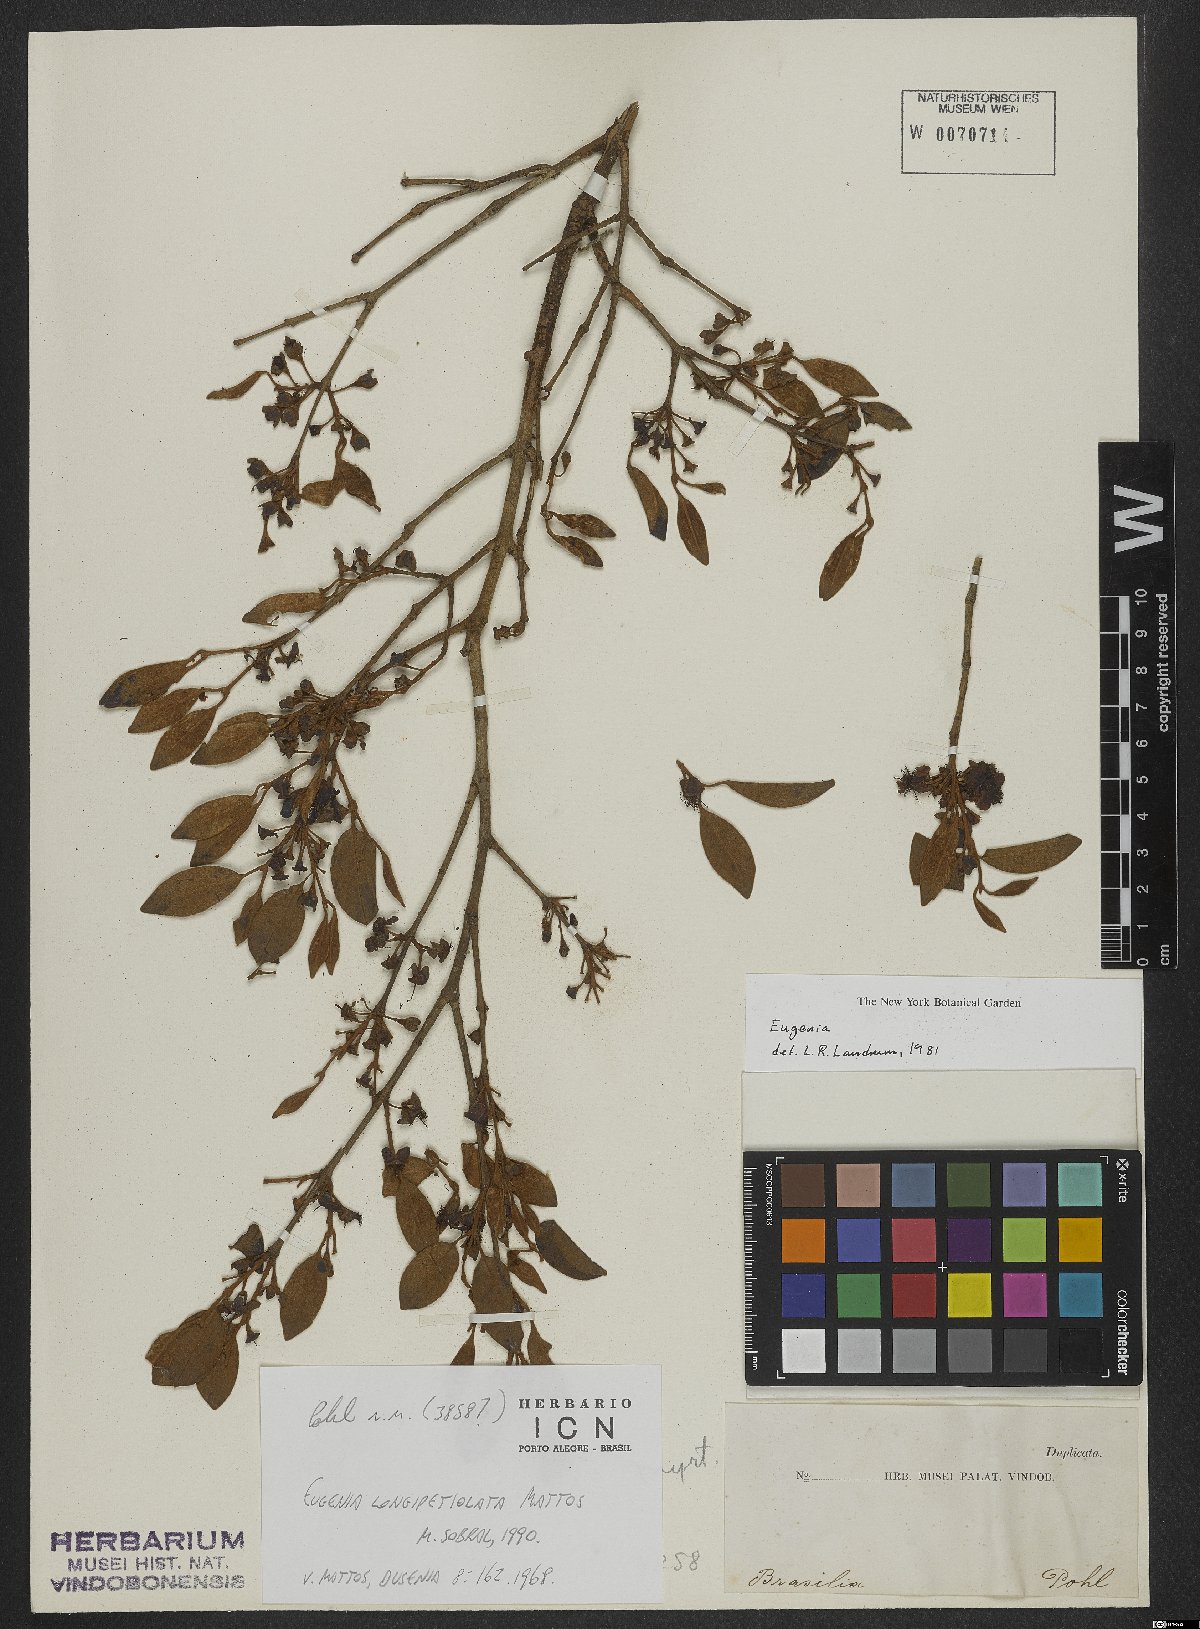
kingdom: Plantae
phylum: Tracheophyta
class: Magnoliopsida
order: Myrtales
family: Myrtaceae
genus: Eugenia
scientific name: Eugenia longipetiolata
